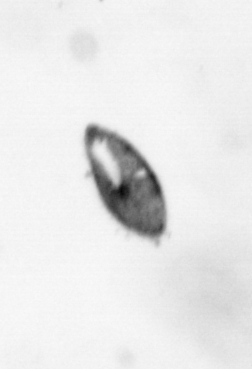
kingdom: Animalia
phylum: Arthropoda
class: Maxillopoda
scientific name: Maxillopoda
